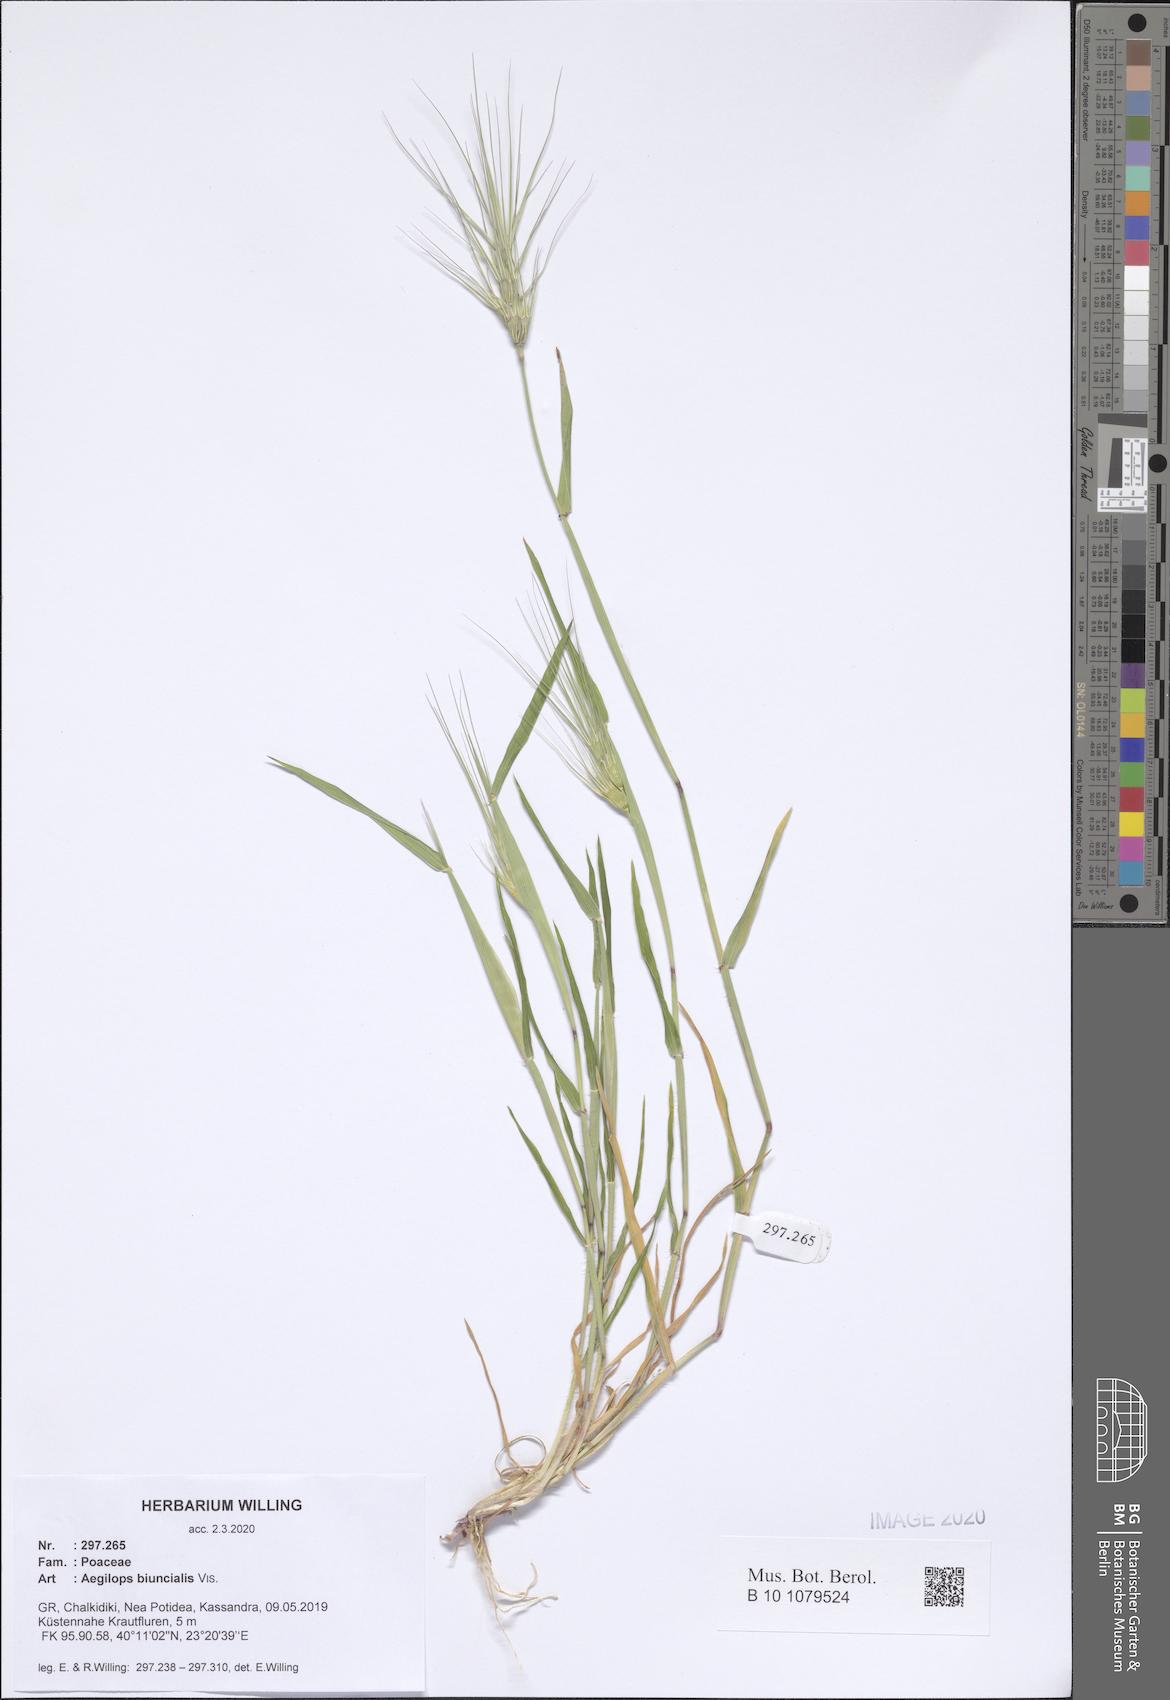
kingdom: Plantae
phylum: Tracheophyta
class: Liliopsida
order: Poales
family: Poaceae
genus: Aegilops
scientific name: Aegilops biuncialis
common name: Mediterranean aegilops
